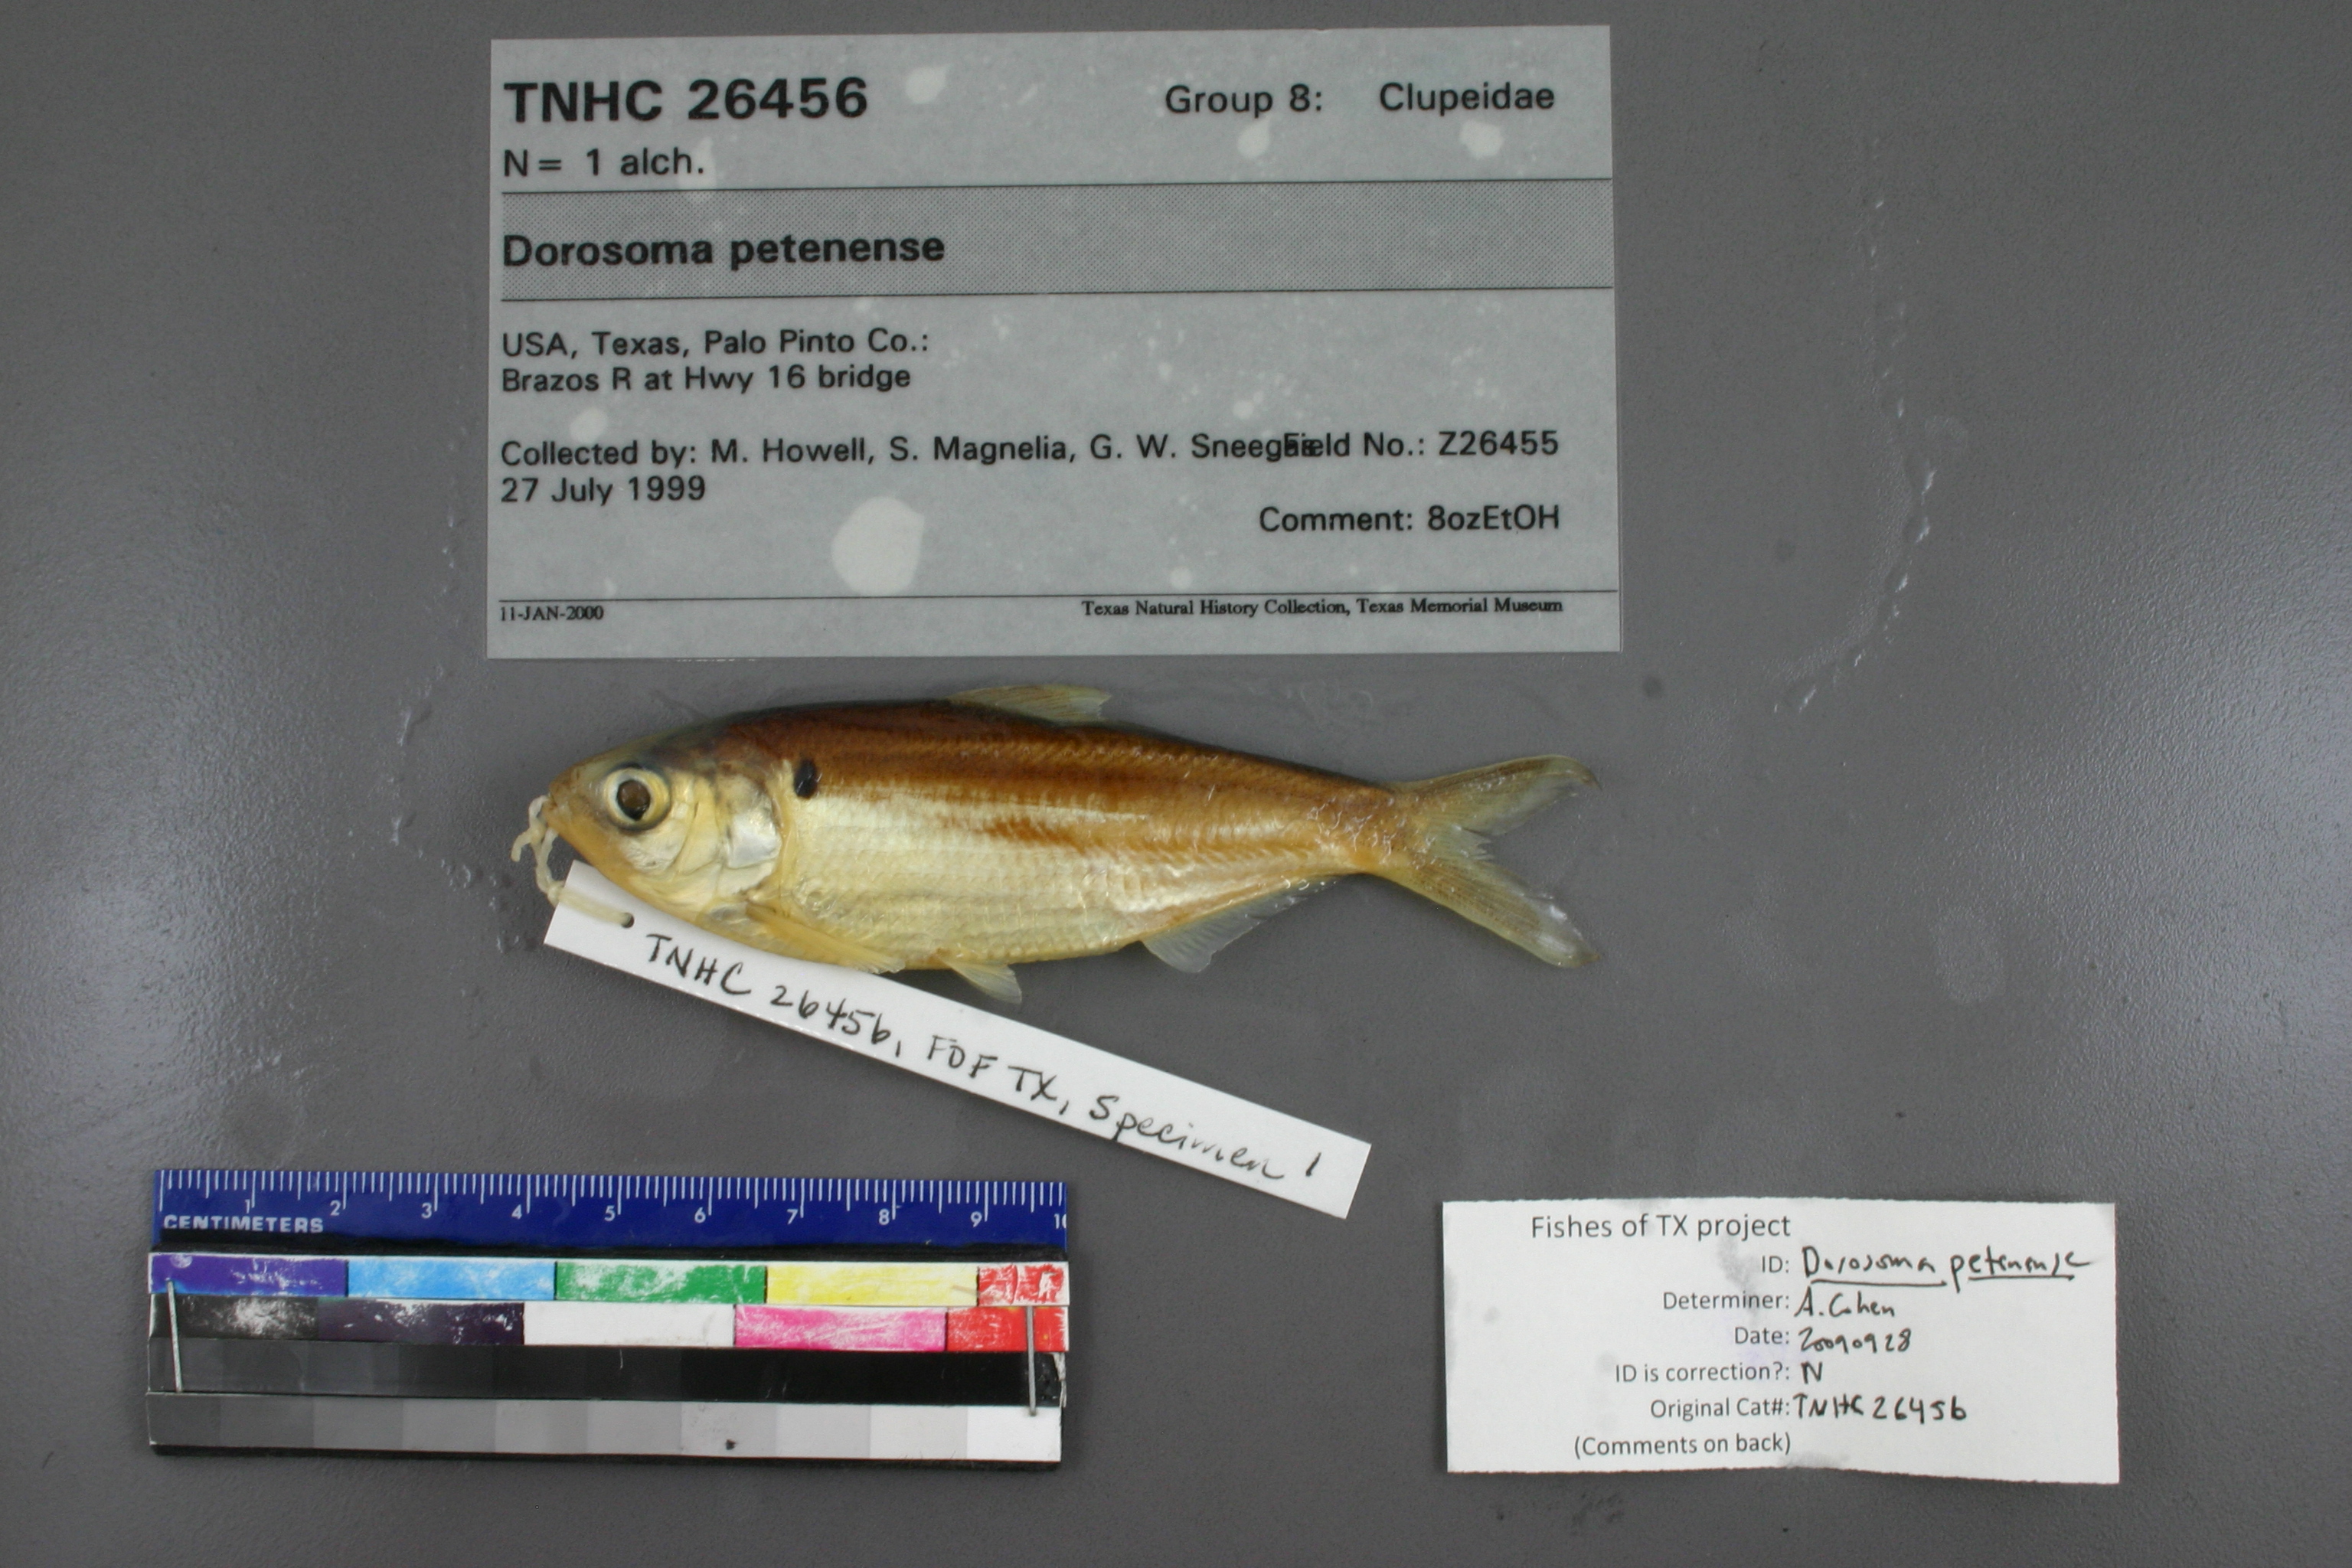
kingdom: Animalia
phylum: Chordata
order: Clupeiformes
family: Clupeidae
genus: Dorosoma
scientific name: Dorosoma petenense
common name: Threadfin shad
